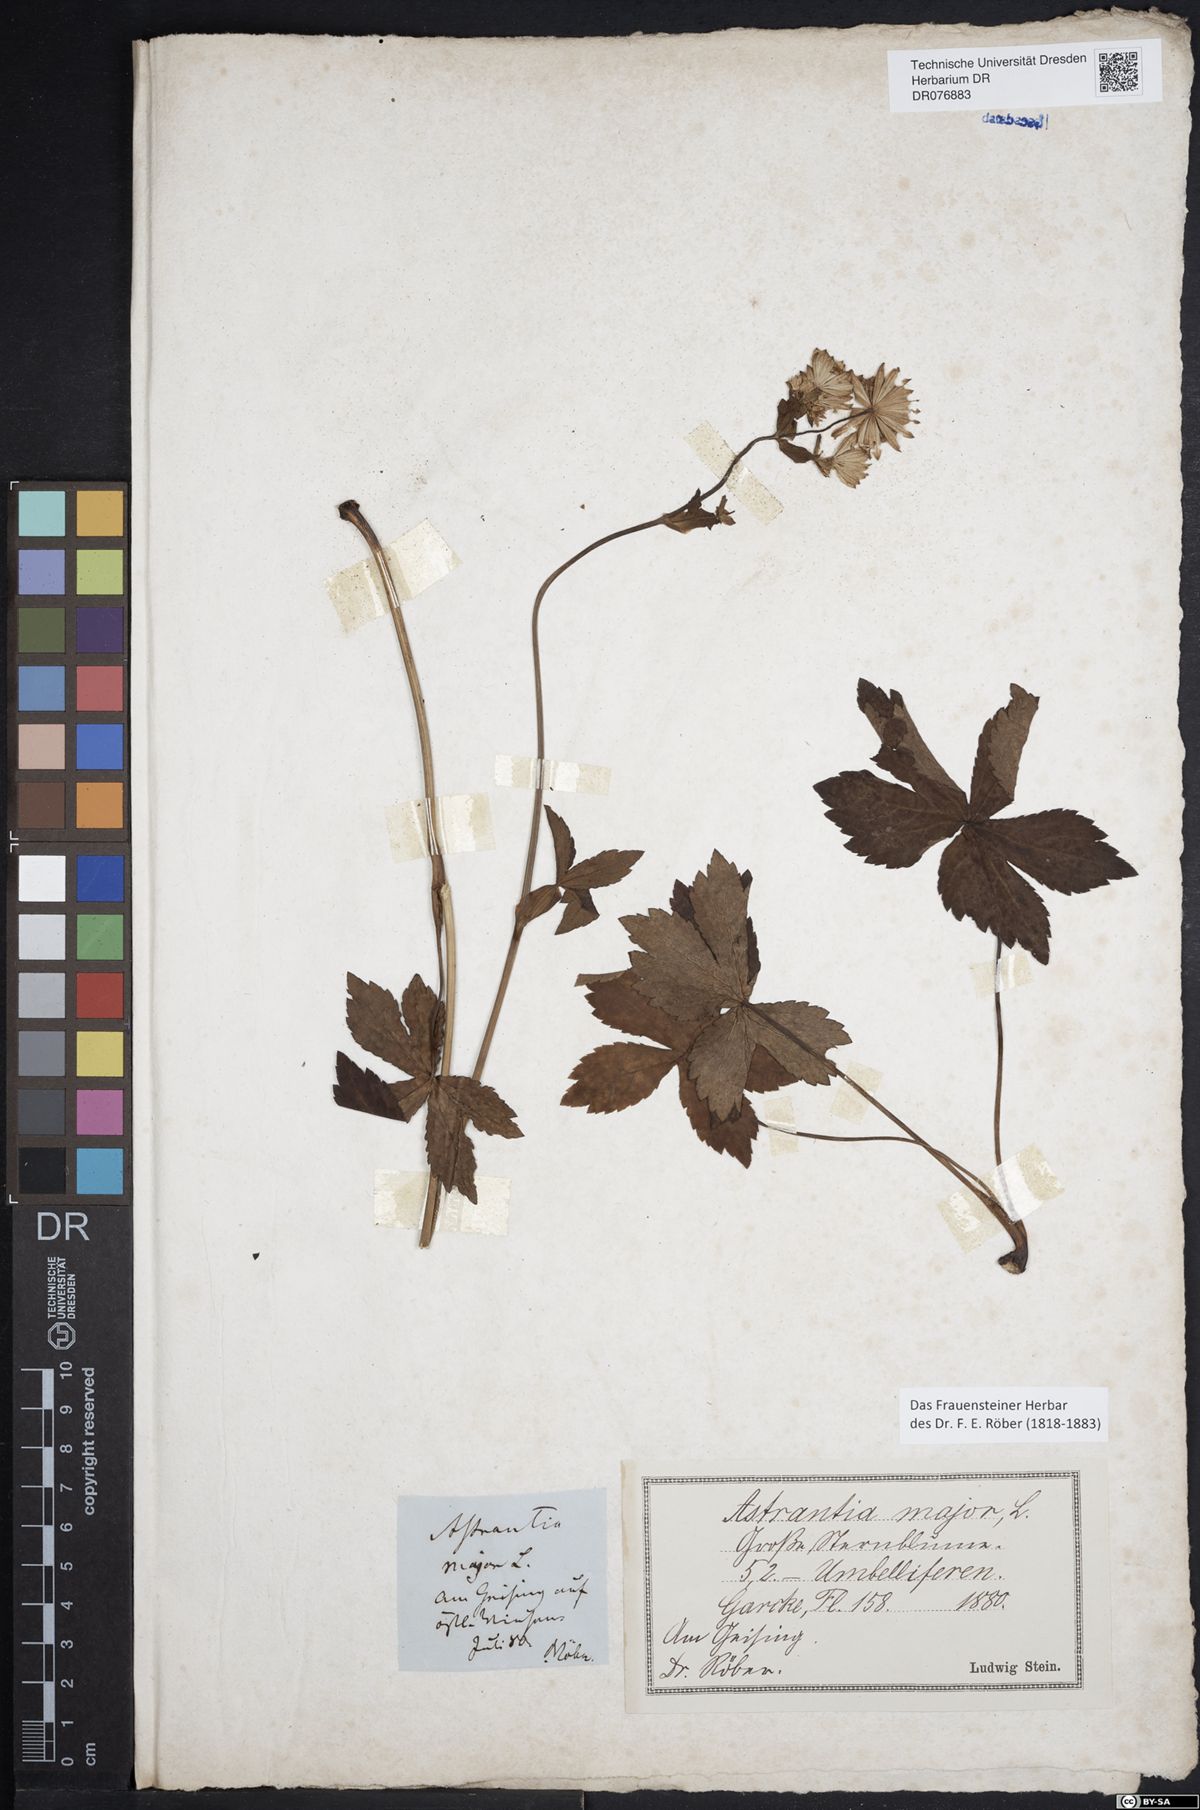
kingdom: Plantae
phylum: Tracheophyta
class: Magnoliopsida
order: Apiales
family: Apiaceae
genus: Astrantia
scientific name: Astrantia major
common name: Greater masterwort
